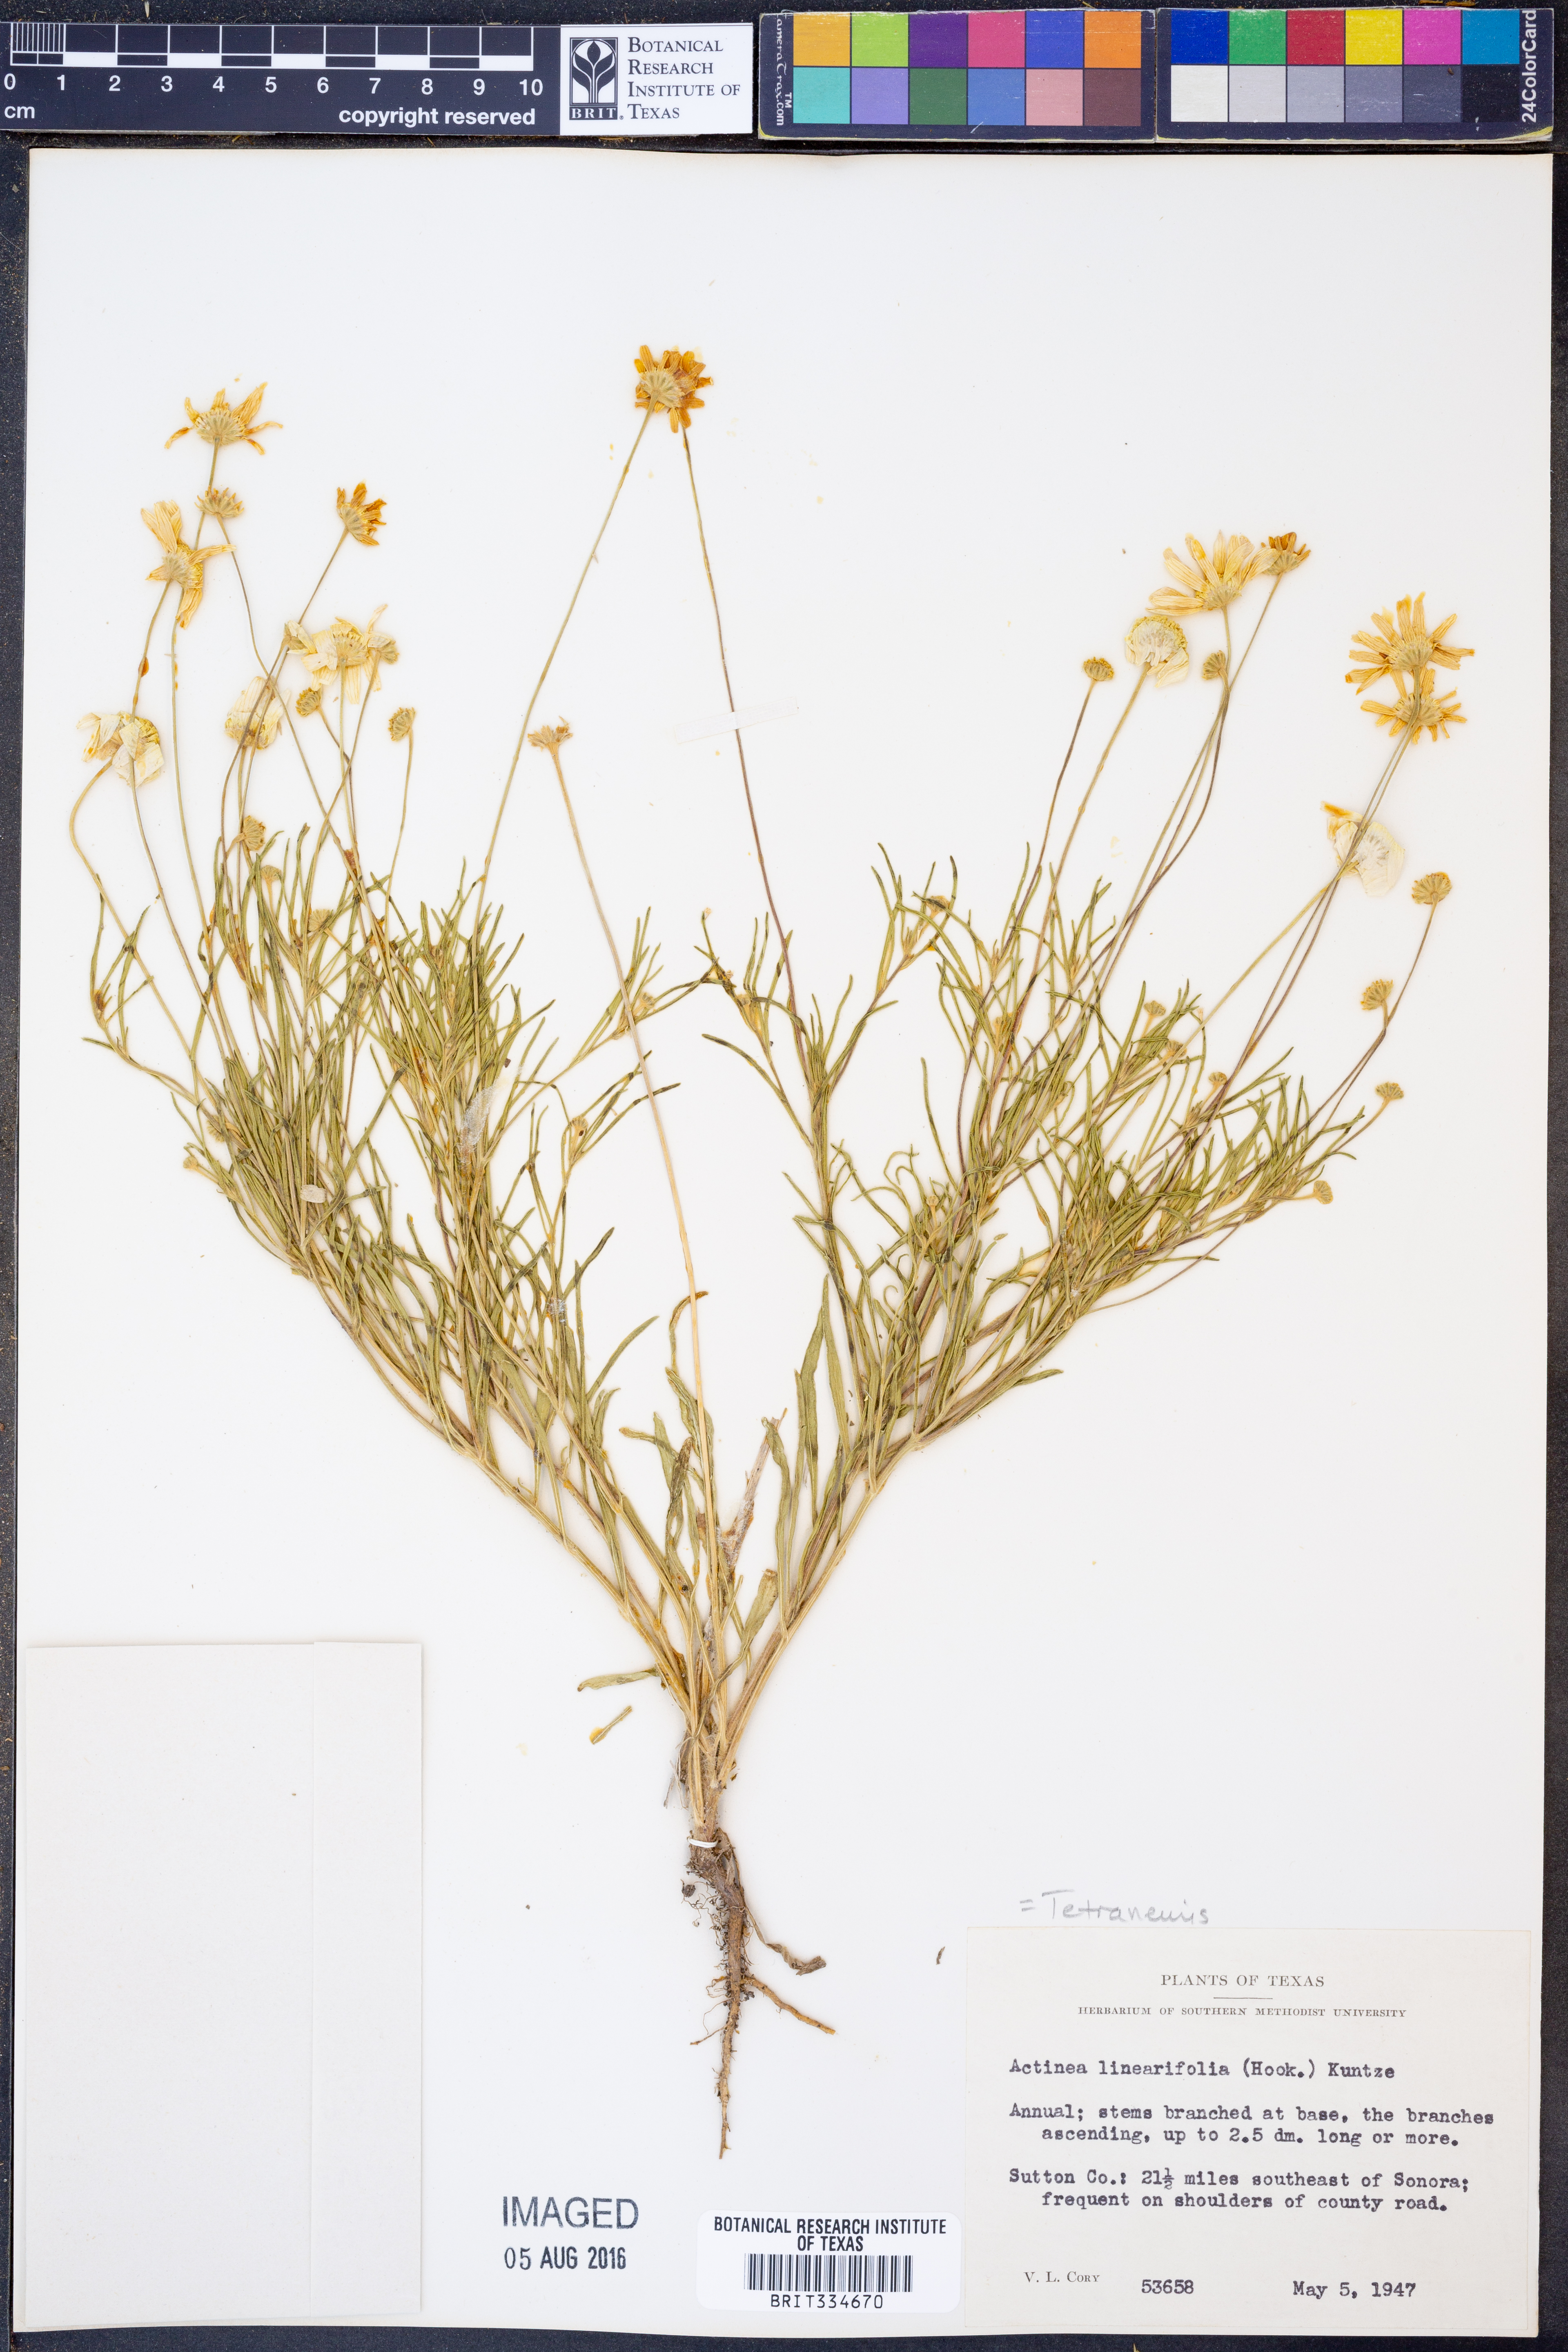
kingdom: Plantae
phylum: Tracheophyta
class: Magnoliopsida
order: Asterales
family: Asteraceae
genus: Tetraneuris
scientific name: Tetraneuris linearifolia
